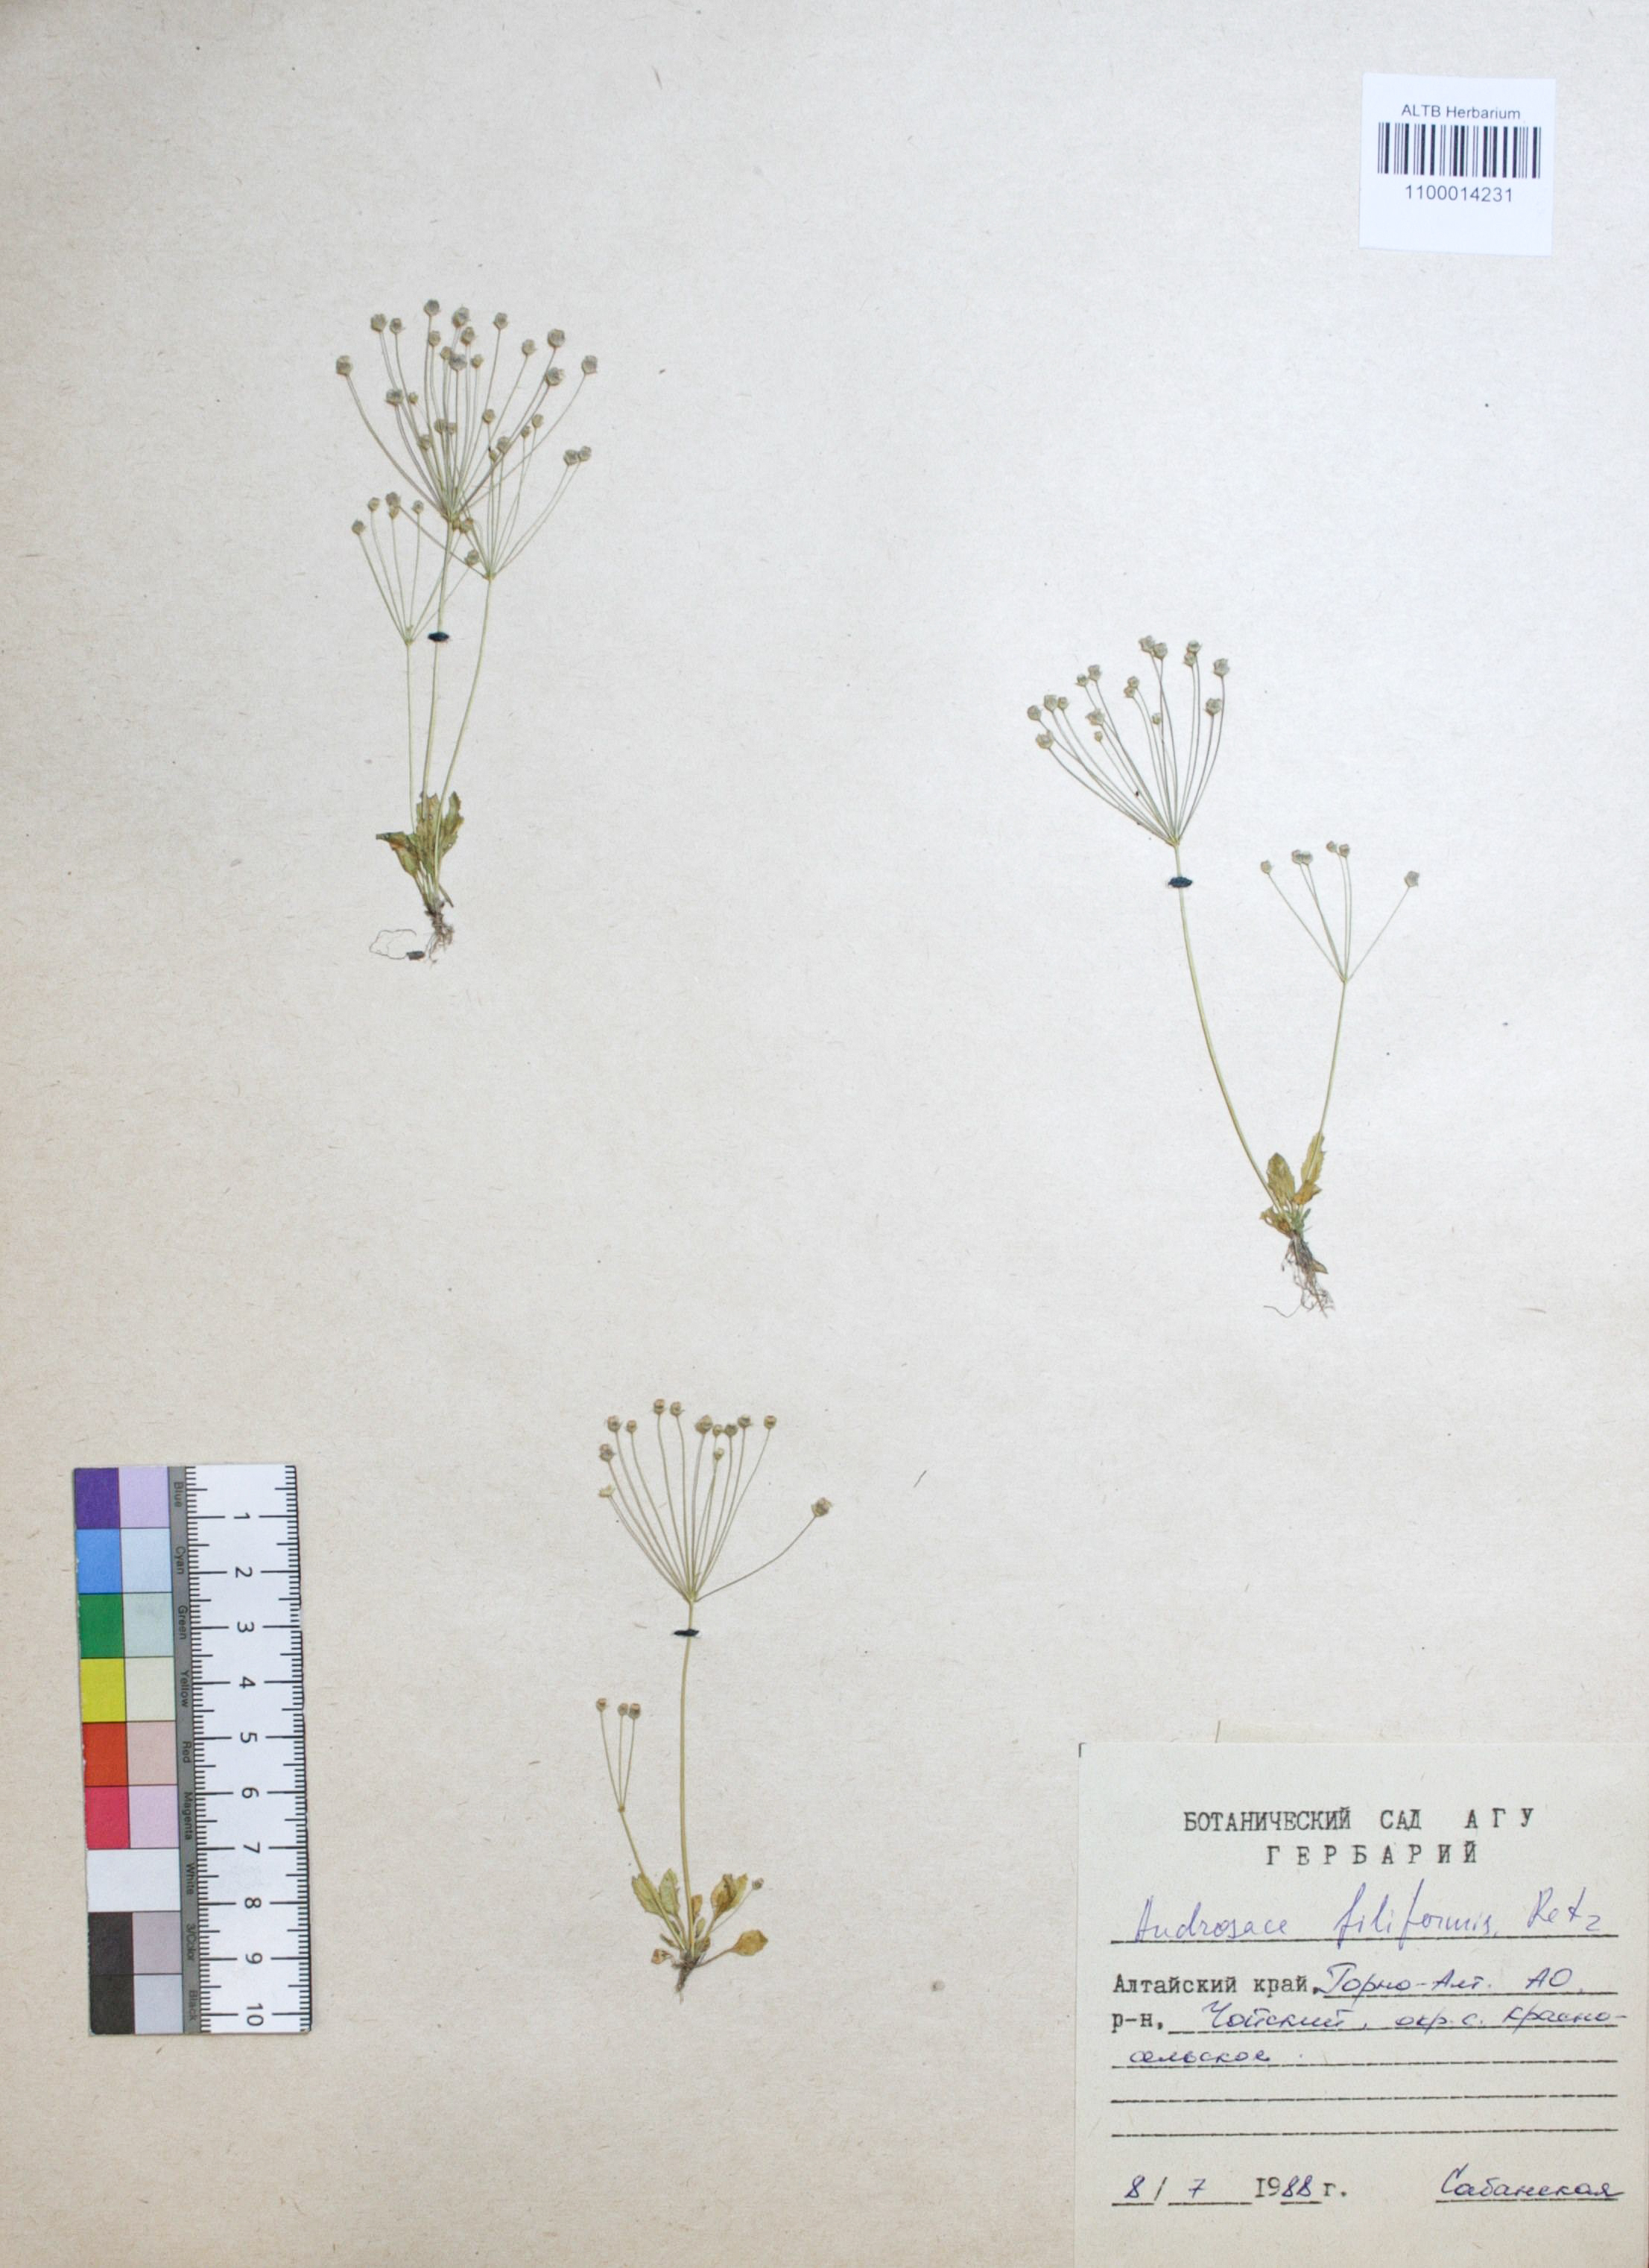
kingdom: Plantae
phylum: Tracheophyta
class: Magnoliopsida
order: Ericales
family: Primulaceae
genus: Androsace
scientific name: Androsace filiformis
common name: Filiform rock jasmine
